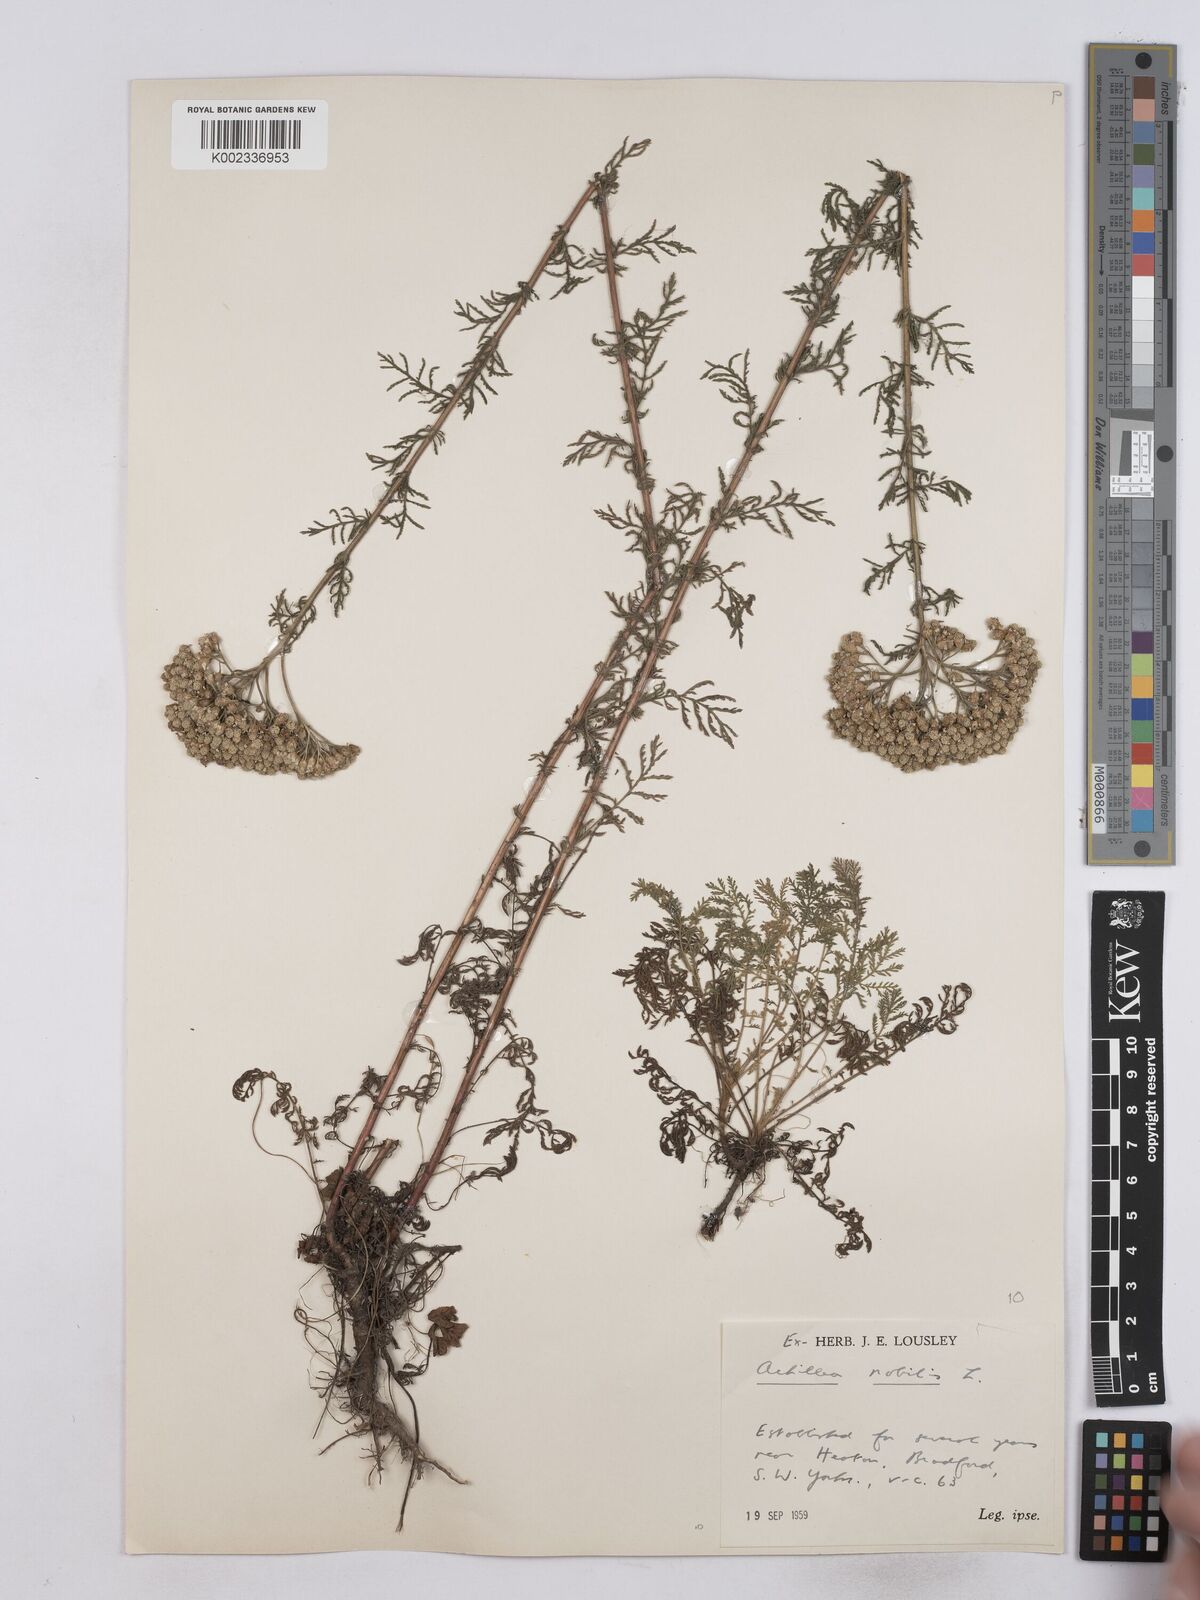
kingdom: Plantae
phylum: Tracheophyta
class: Magnoliopsida
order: Asterales
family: Asteraceae
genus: Achillea
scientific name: Achillea nobilis
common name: Noble yarrow
